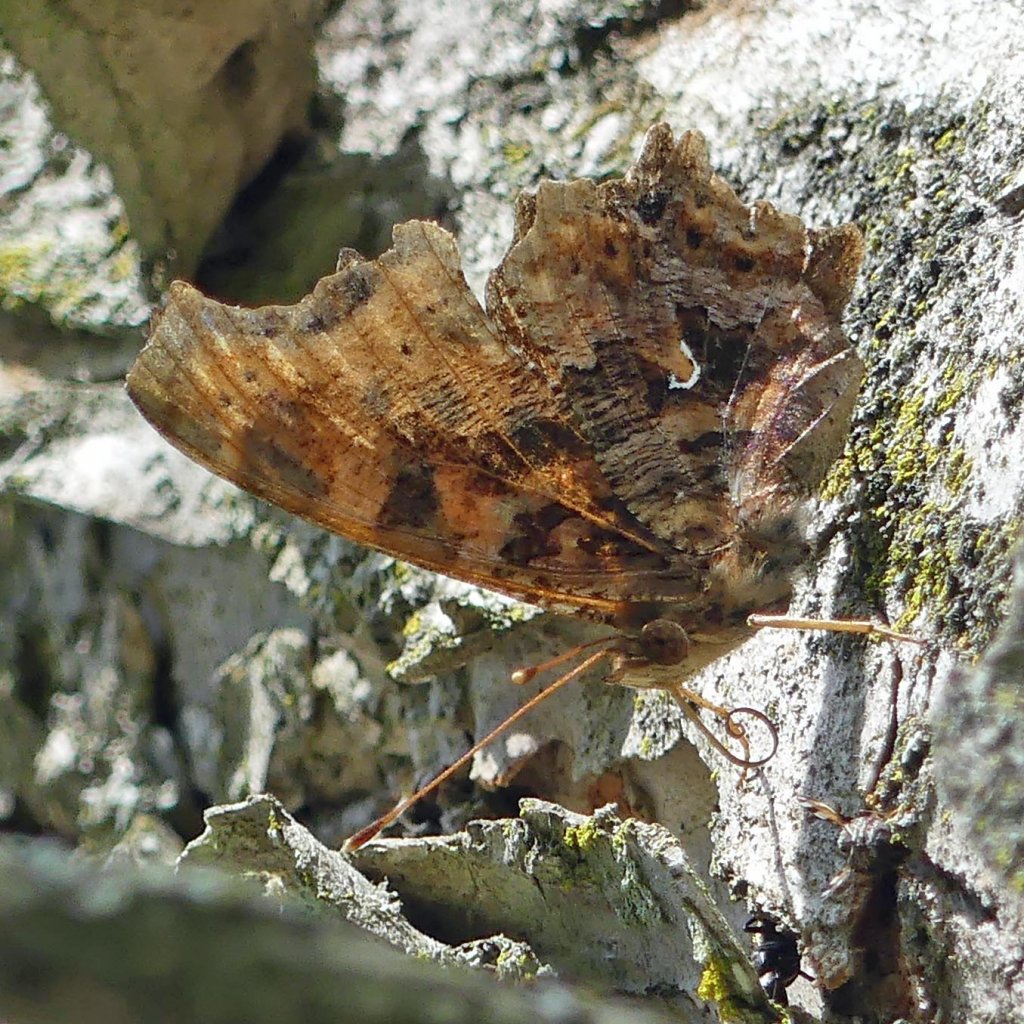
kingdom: Animalia
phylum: Arthropoda
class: Insecta
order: Lepidoptera
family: Nymphalidae
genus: Polygonia
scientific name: Polygonia comma
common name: Eastern Comma
